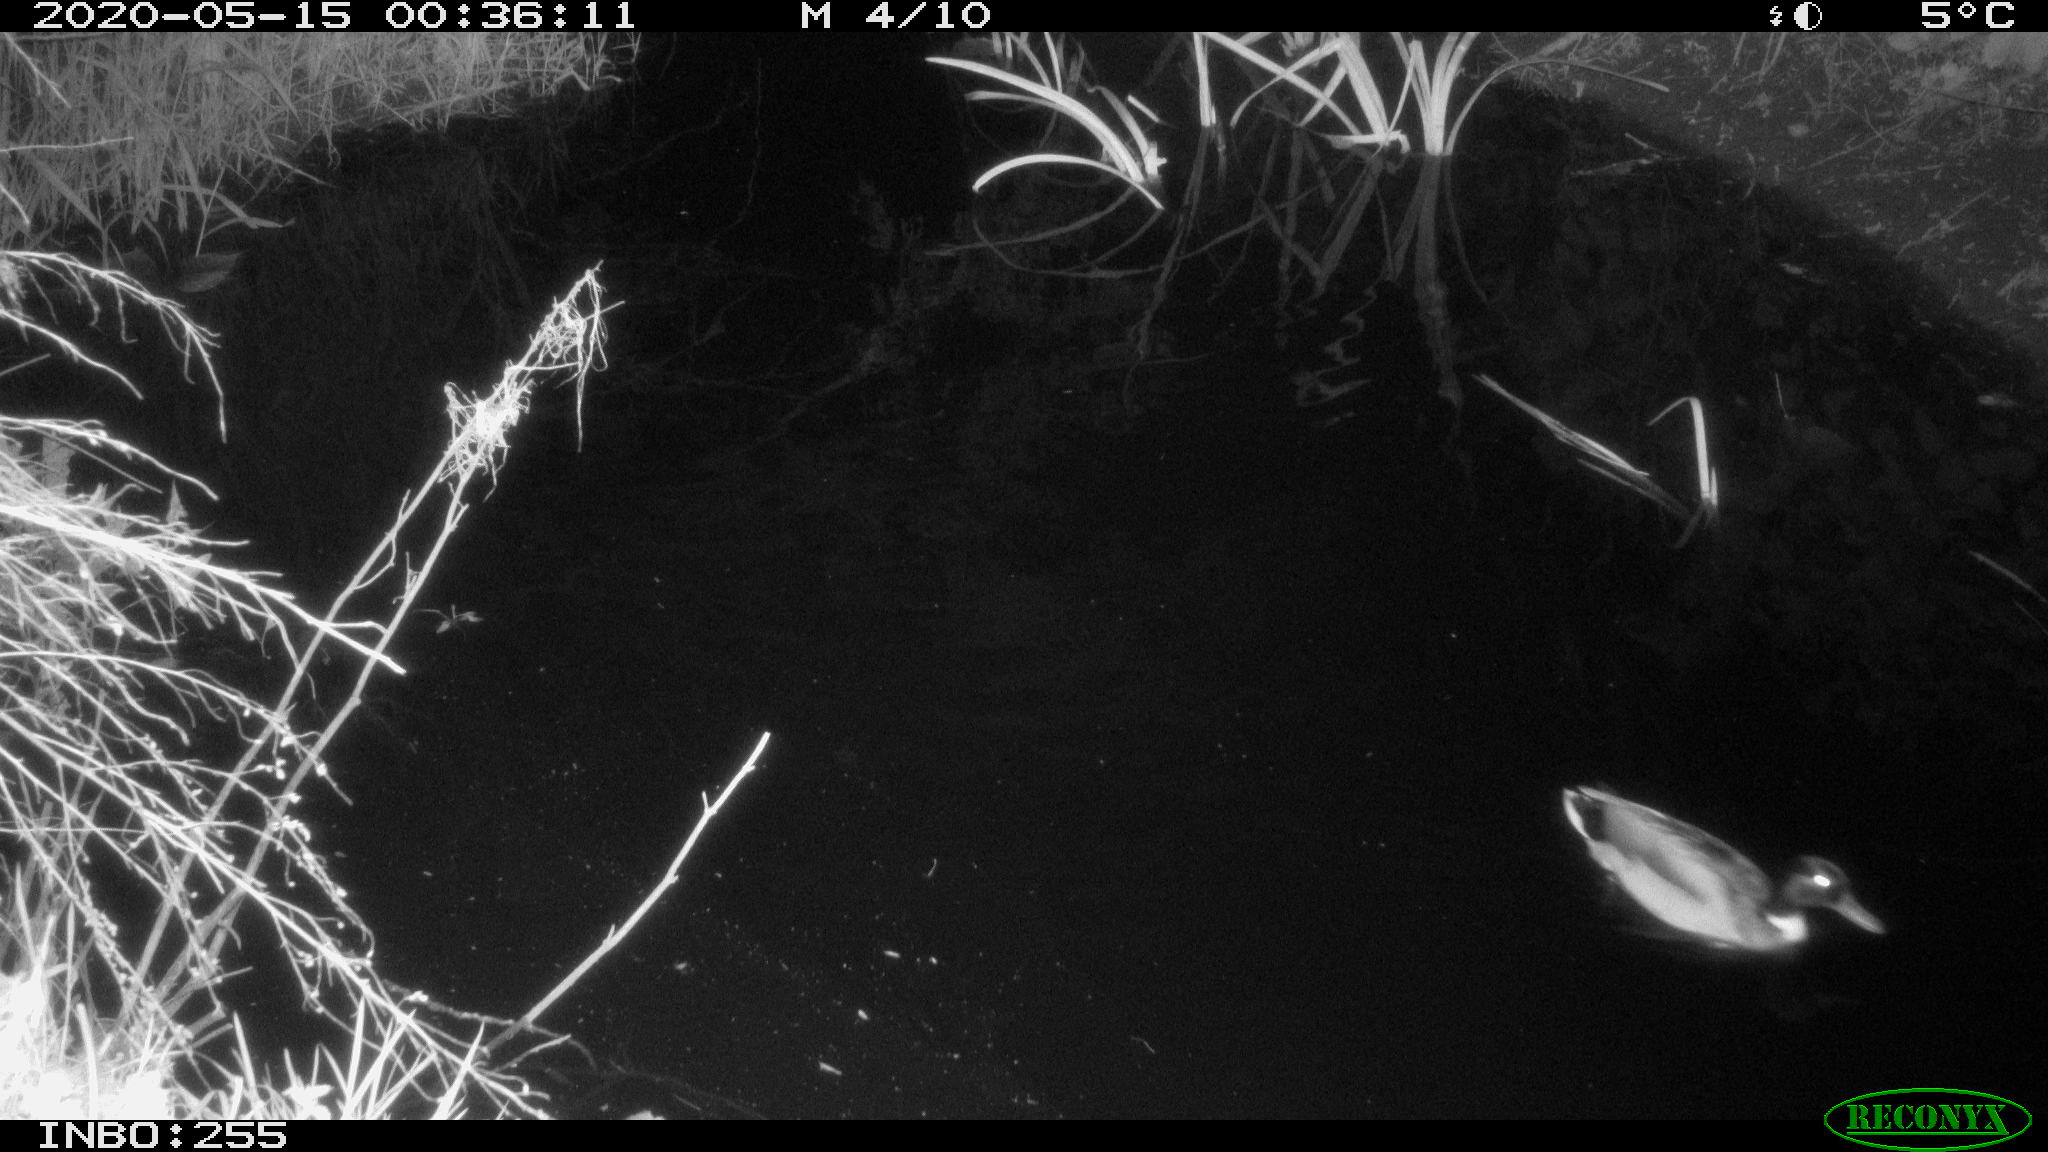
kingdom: Animalia
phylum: Chordata
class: Aves
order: Anseriformes
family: Anatidae
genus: Anas
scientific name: Anas platyrhynchos
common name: Mallard
